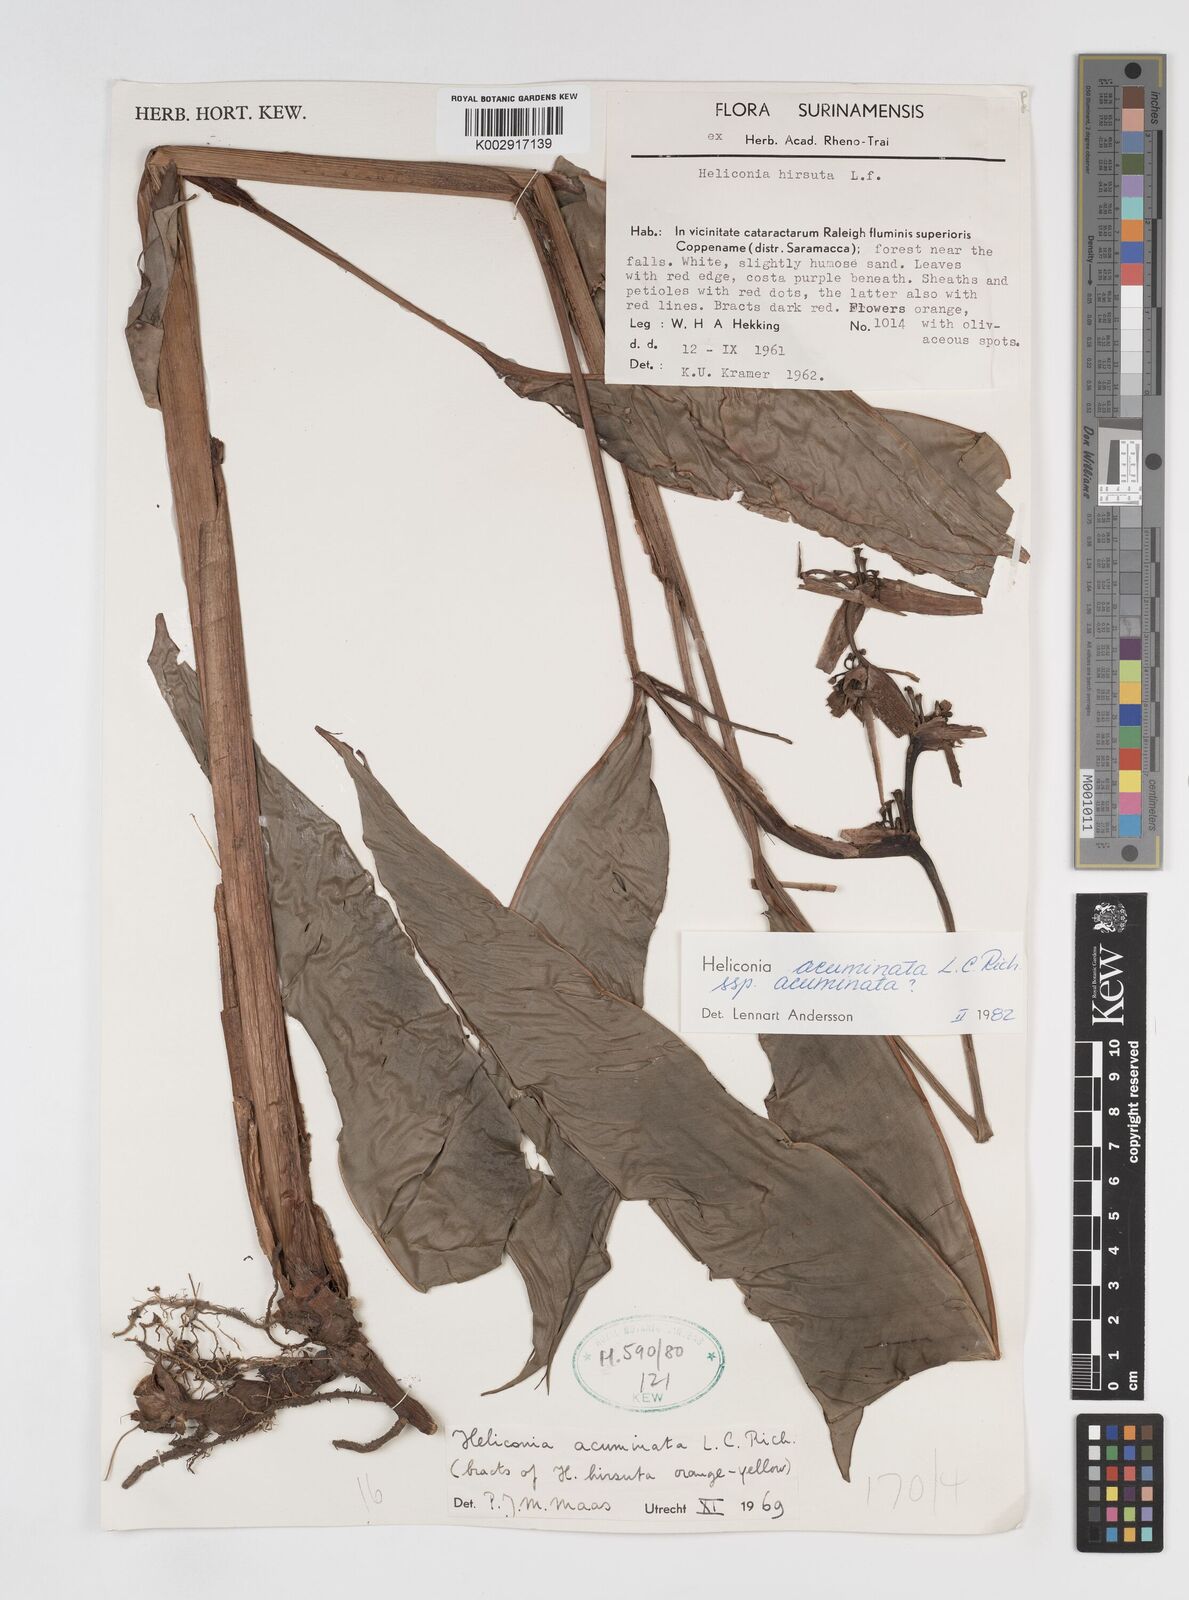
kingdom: Plantae
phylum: Tracheophyta
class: Liliopsida
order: Zingiberales
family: Heliconiaceae
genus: Heliconia
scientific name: Heliconia acuminata
